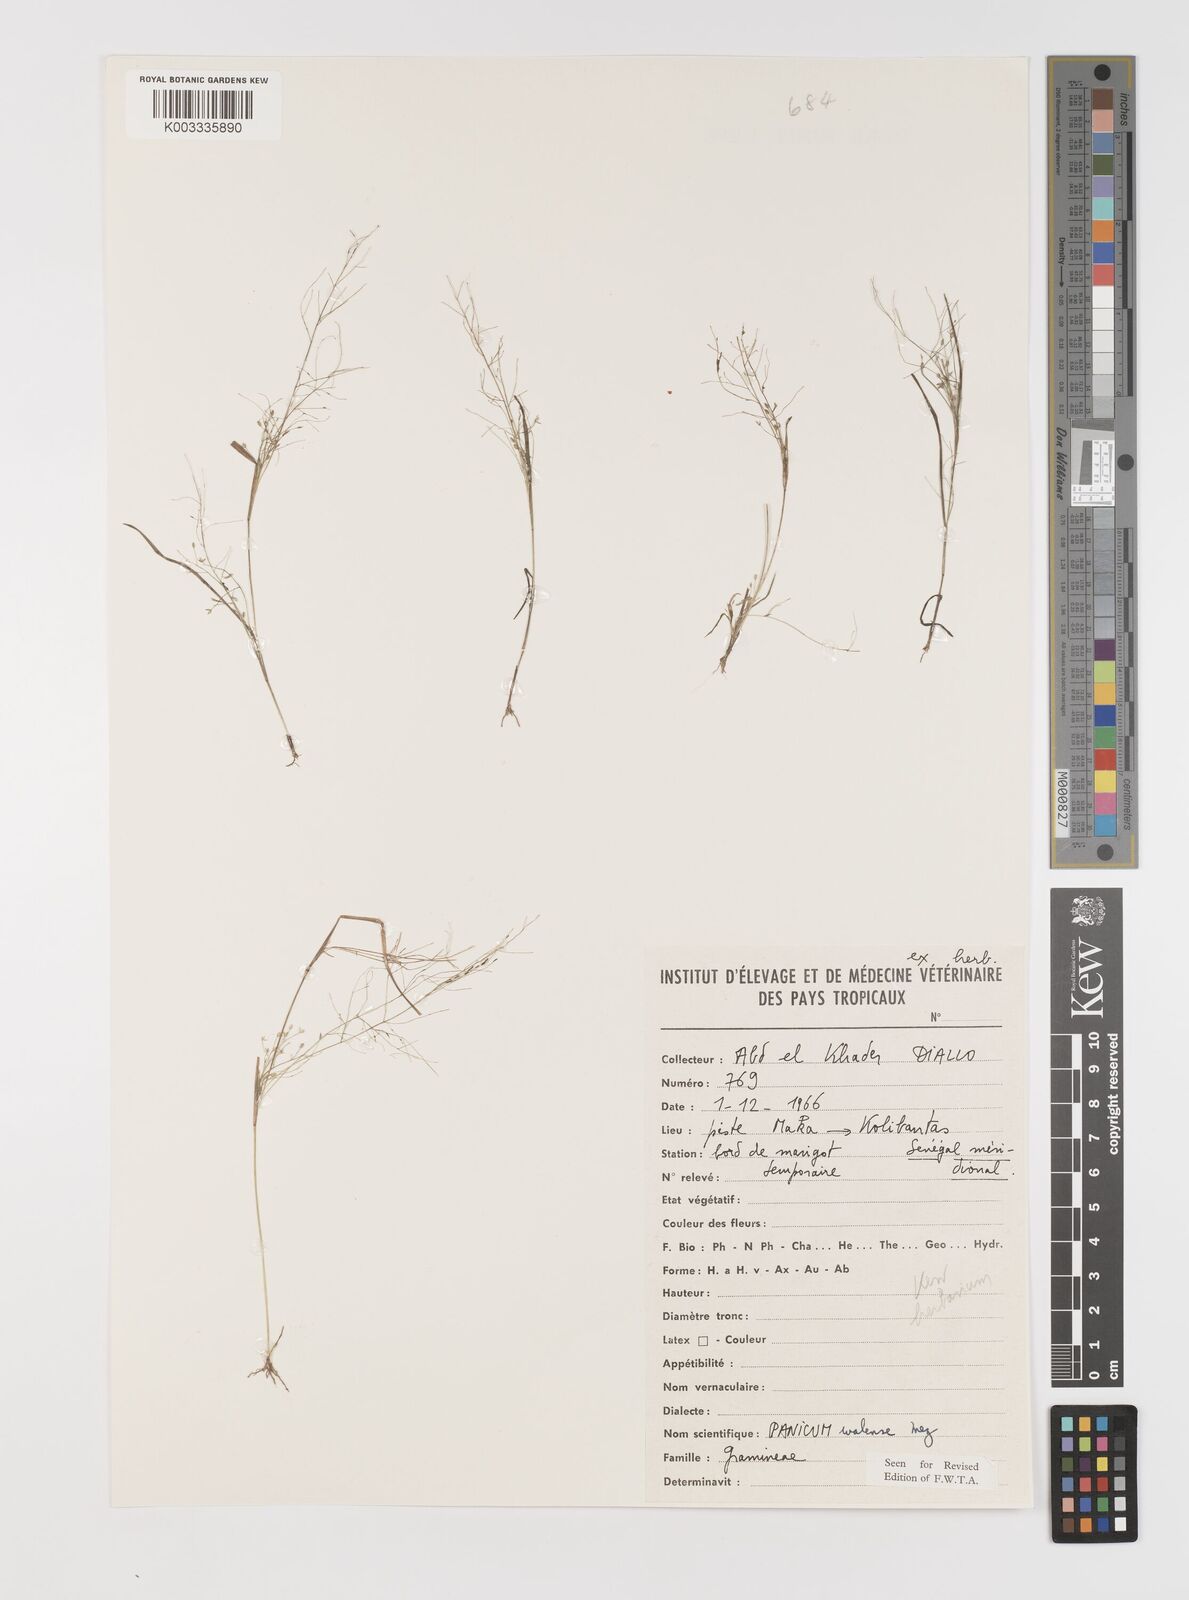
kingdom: Plantae
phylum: Tracheophyta
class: Liliopsida
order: Poales
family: Poaceae
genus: Panicum
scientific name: Panicum humile
